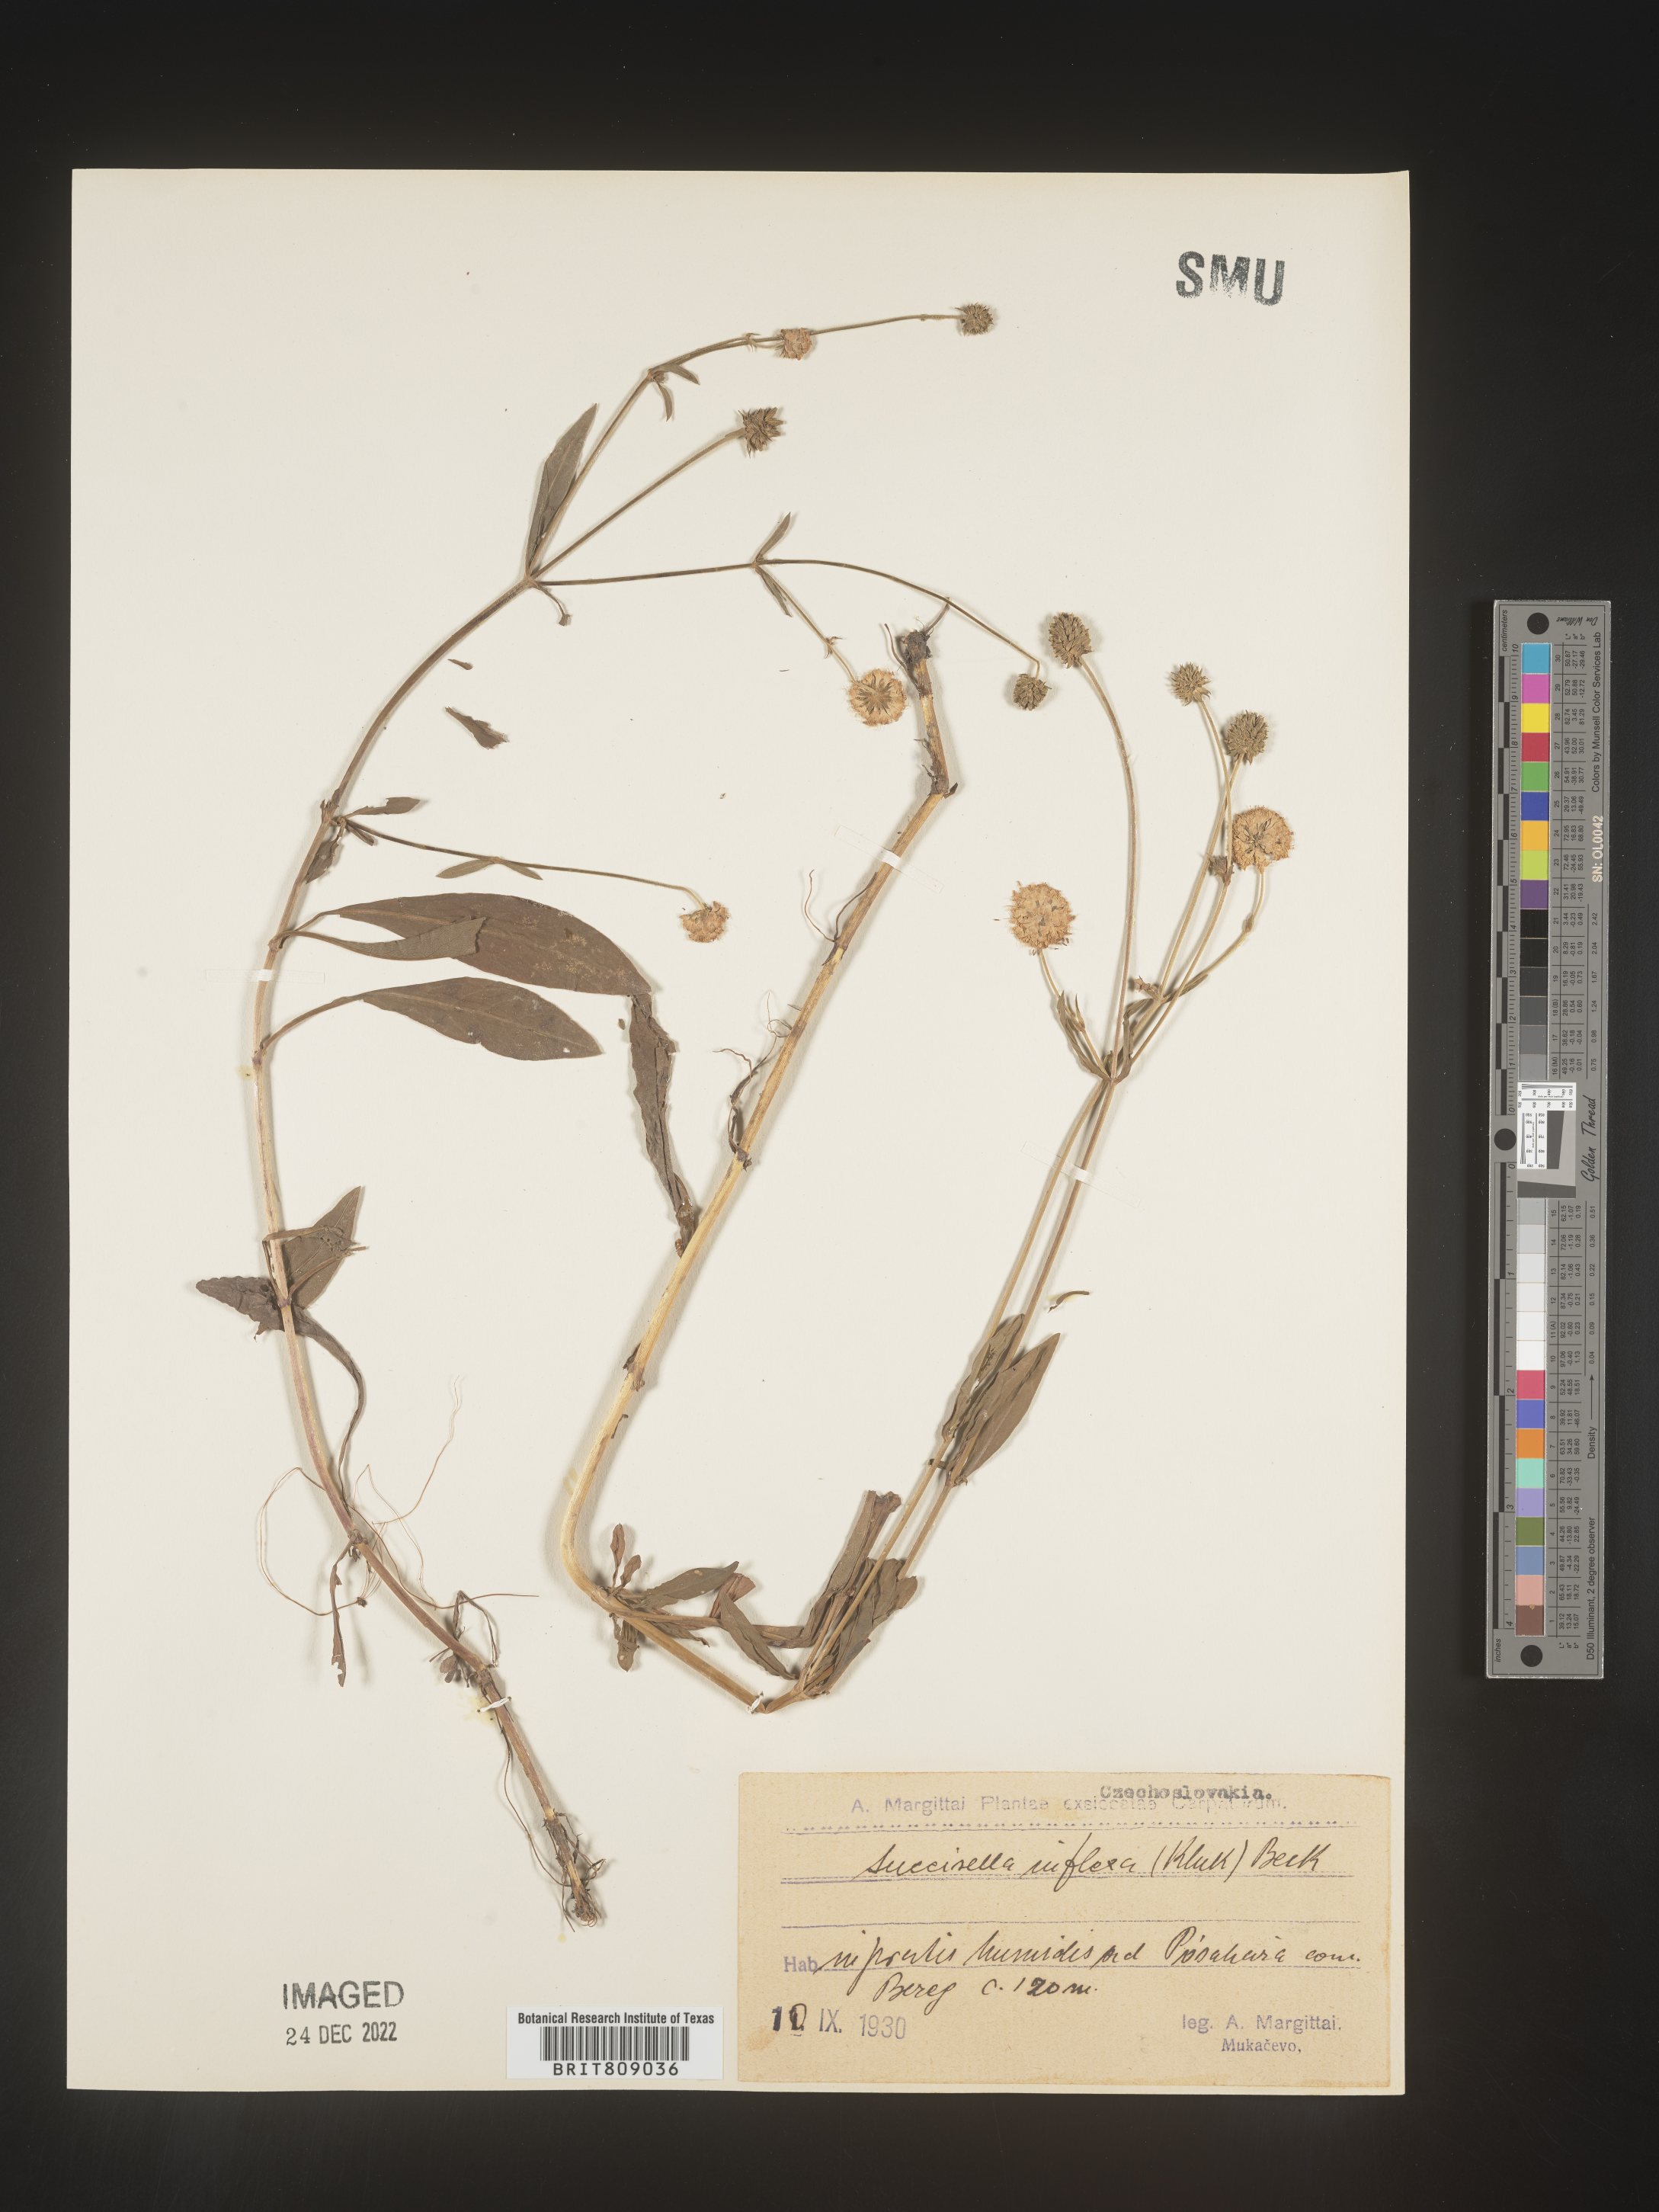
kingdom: Plantae
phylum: Tracheophyta
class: Magnoliopsida
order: Dipsacales
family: Caprifoliaceae
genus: Succisa
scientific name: Succisa
